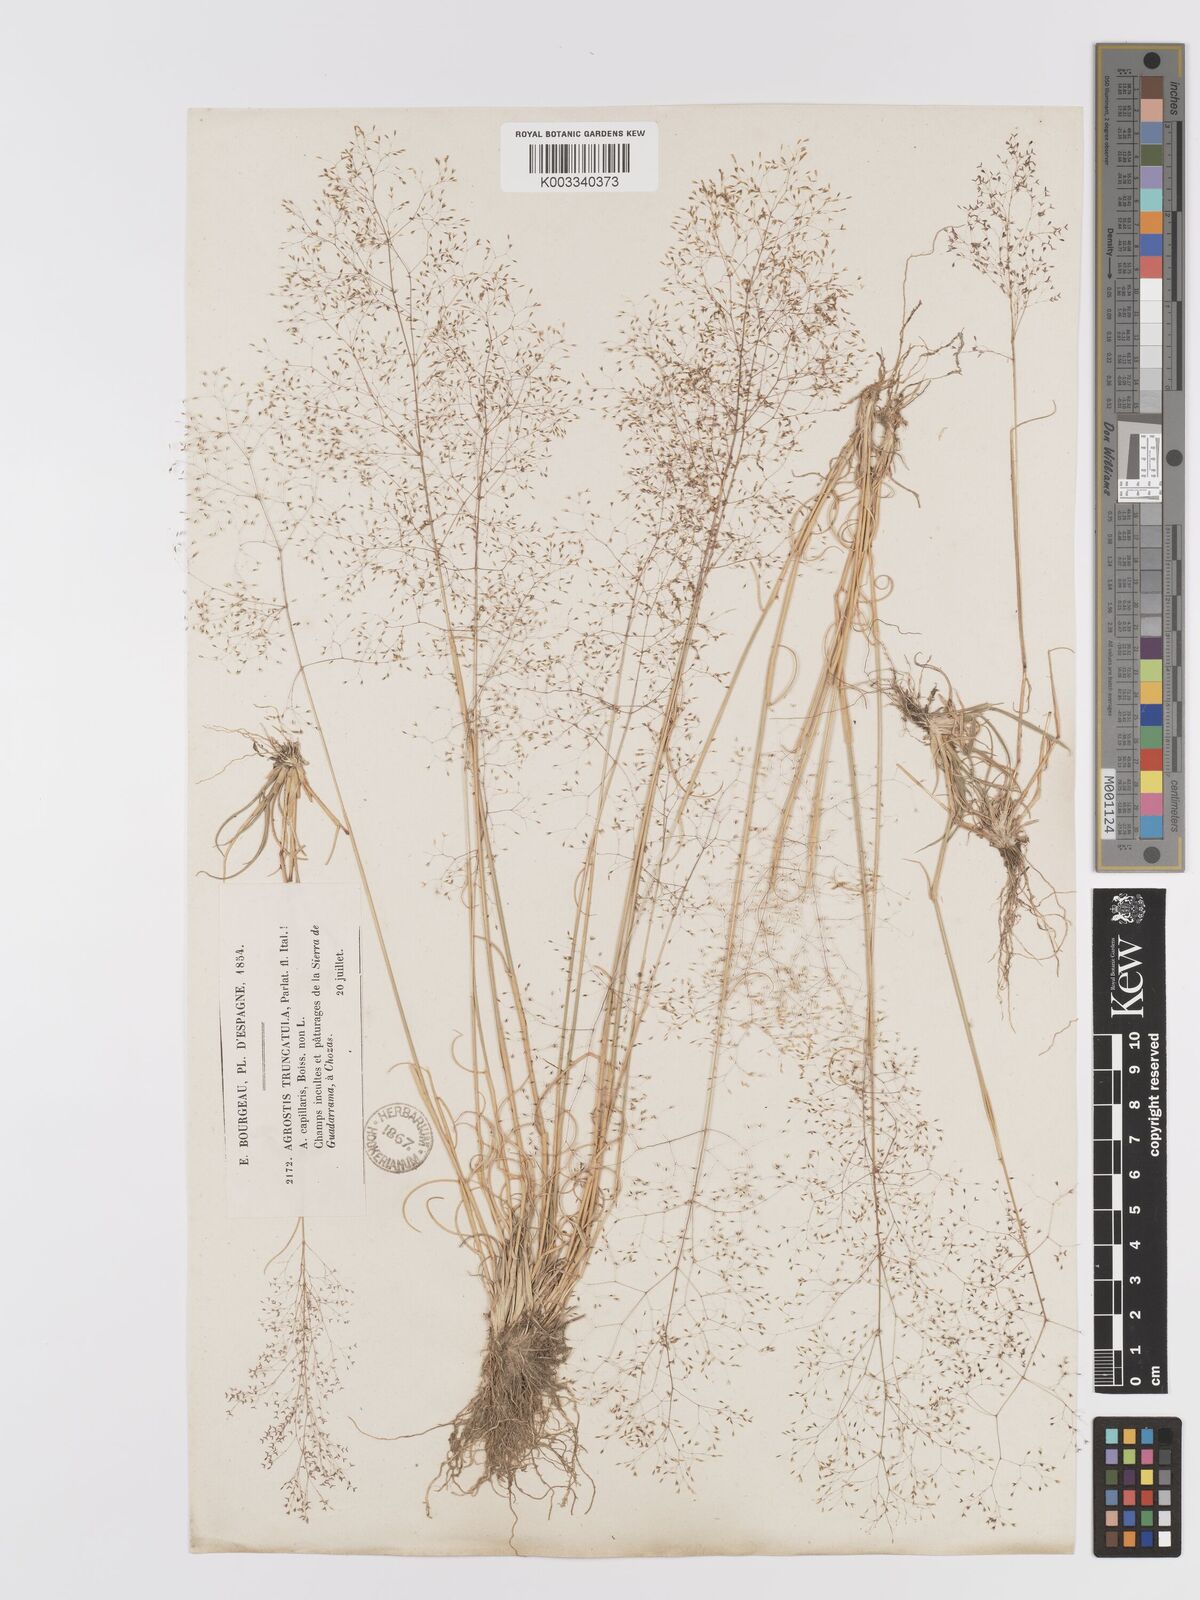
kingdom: Plantae
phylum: Tracheophyta
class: Liliopsida
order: Poales
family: Poaceae
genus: Agrostis
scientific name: Agrostis castellana
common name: Highland bent
